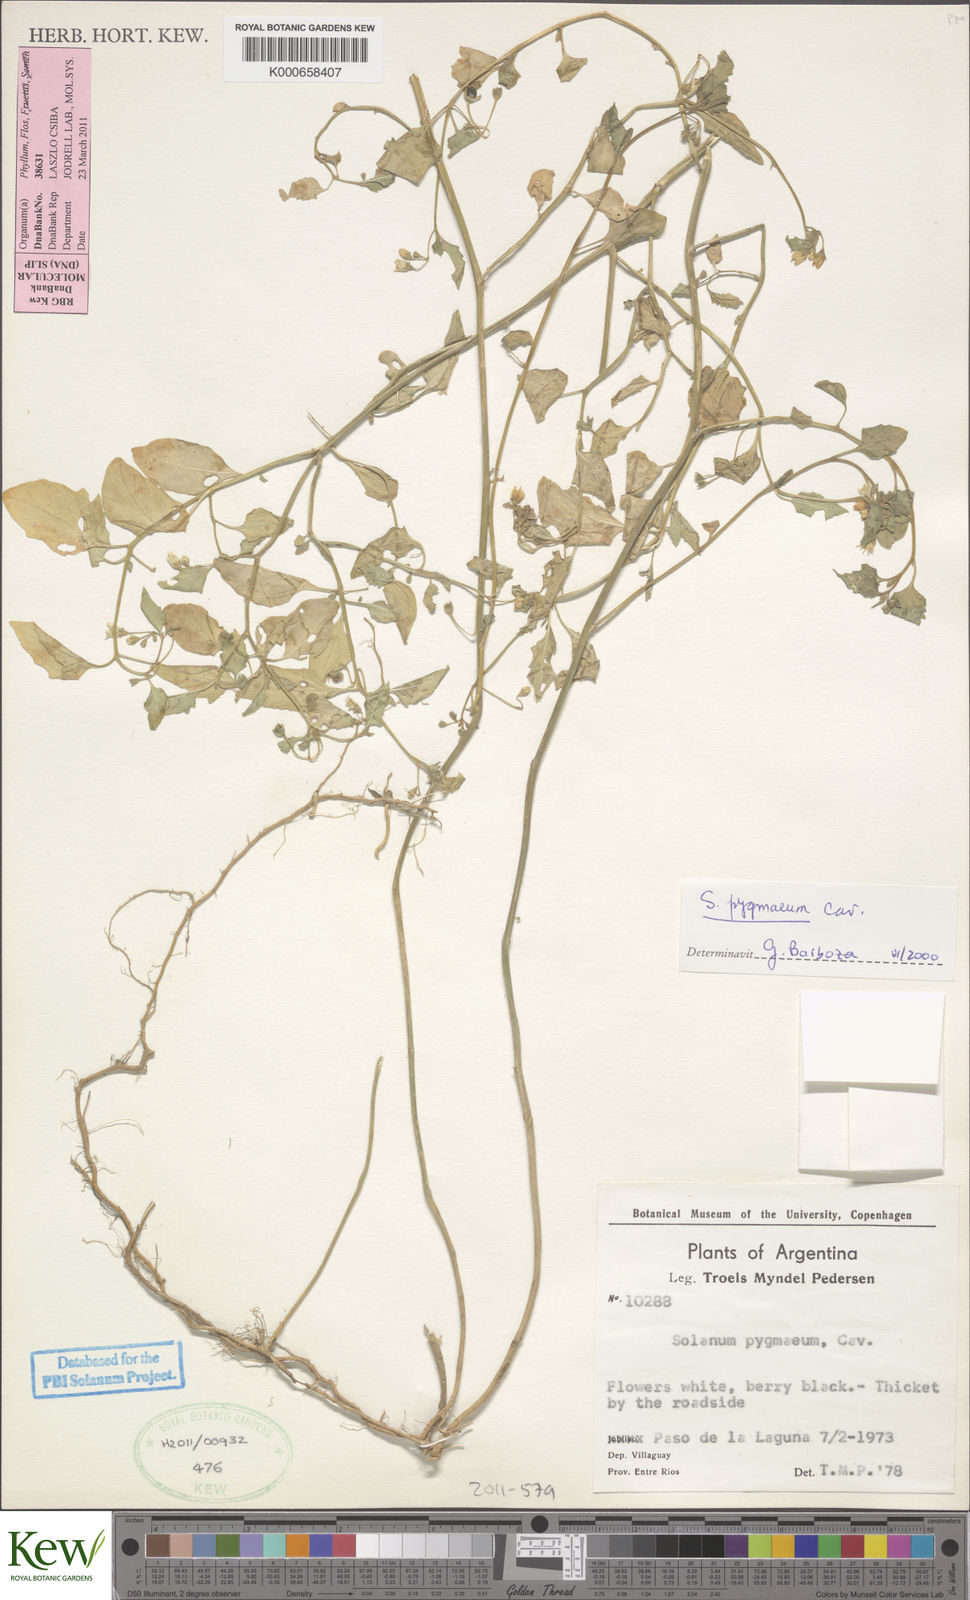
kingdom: Plantae
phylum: Tracheophyta
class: Magnoliopsida
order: Solanales
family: Solanaceae
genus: Solanum
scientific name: Solanum pygmaeum
